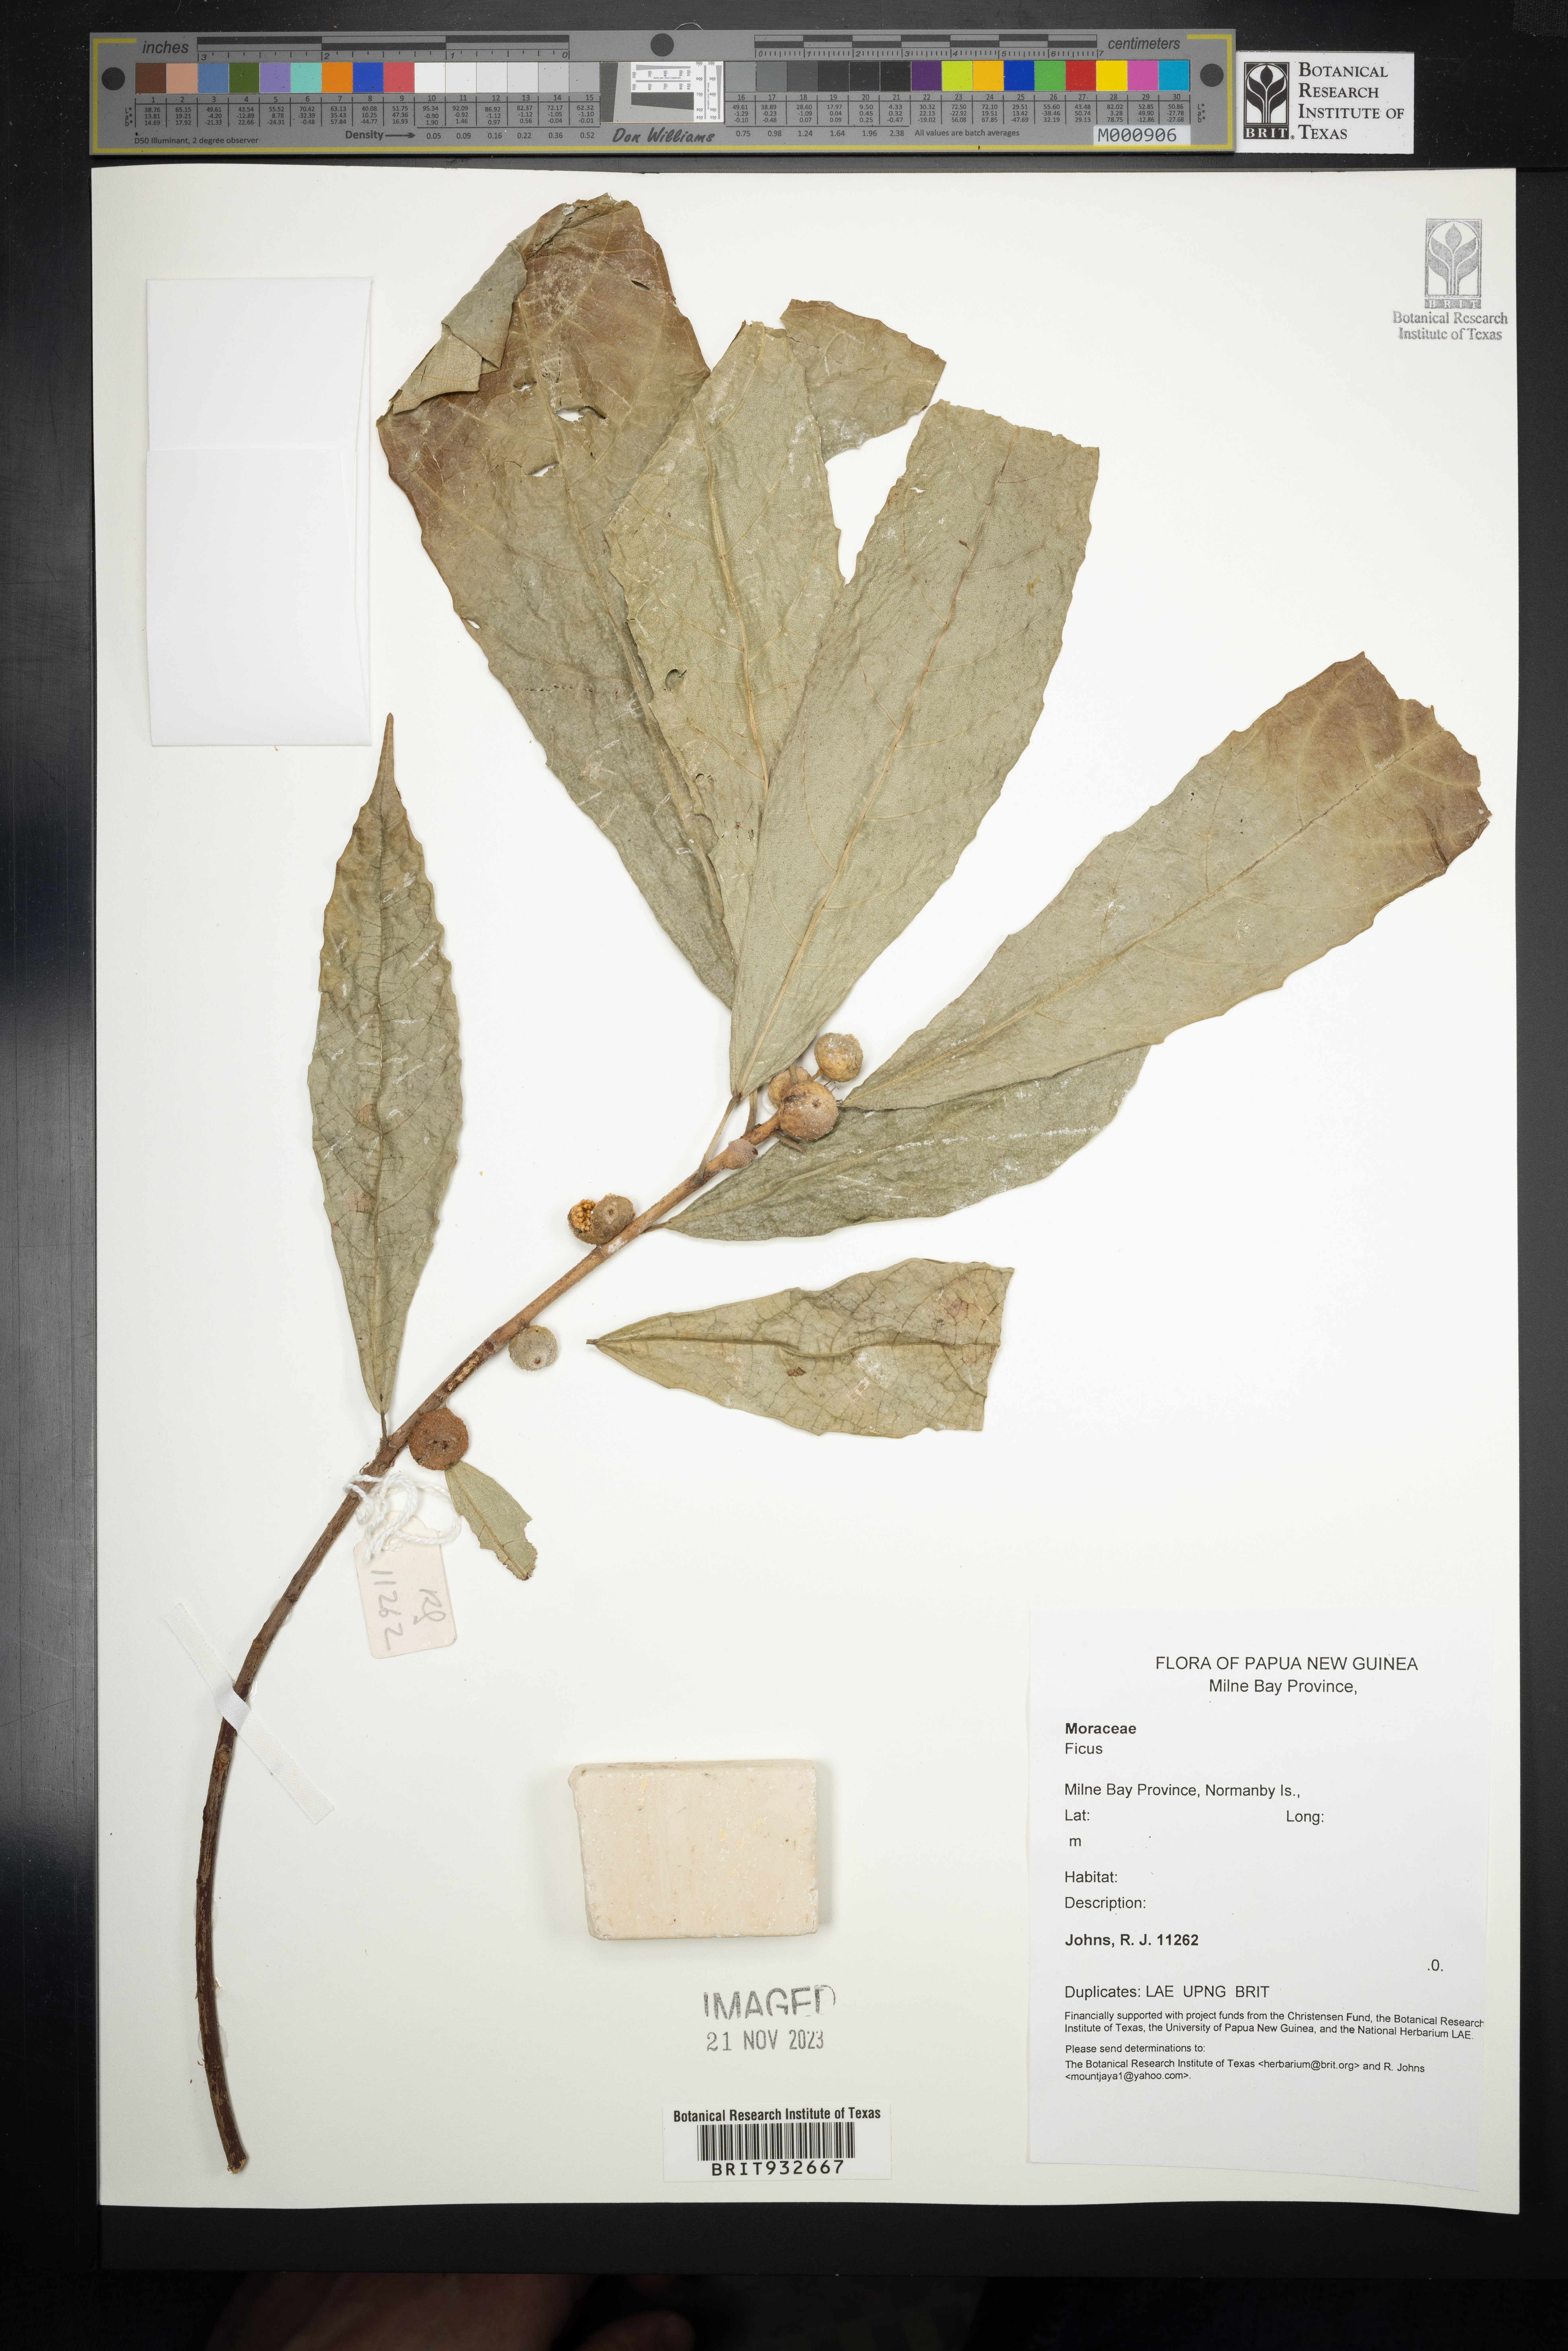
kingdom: Plantae
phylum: Tracheophyta
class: Magnoliopsida
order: Rosales
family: Moraceae
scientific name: Moraceae
